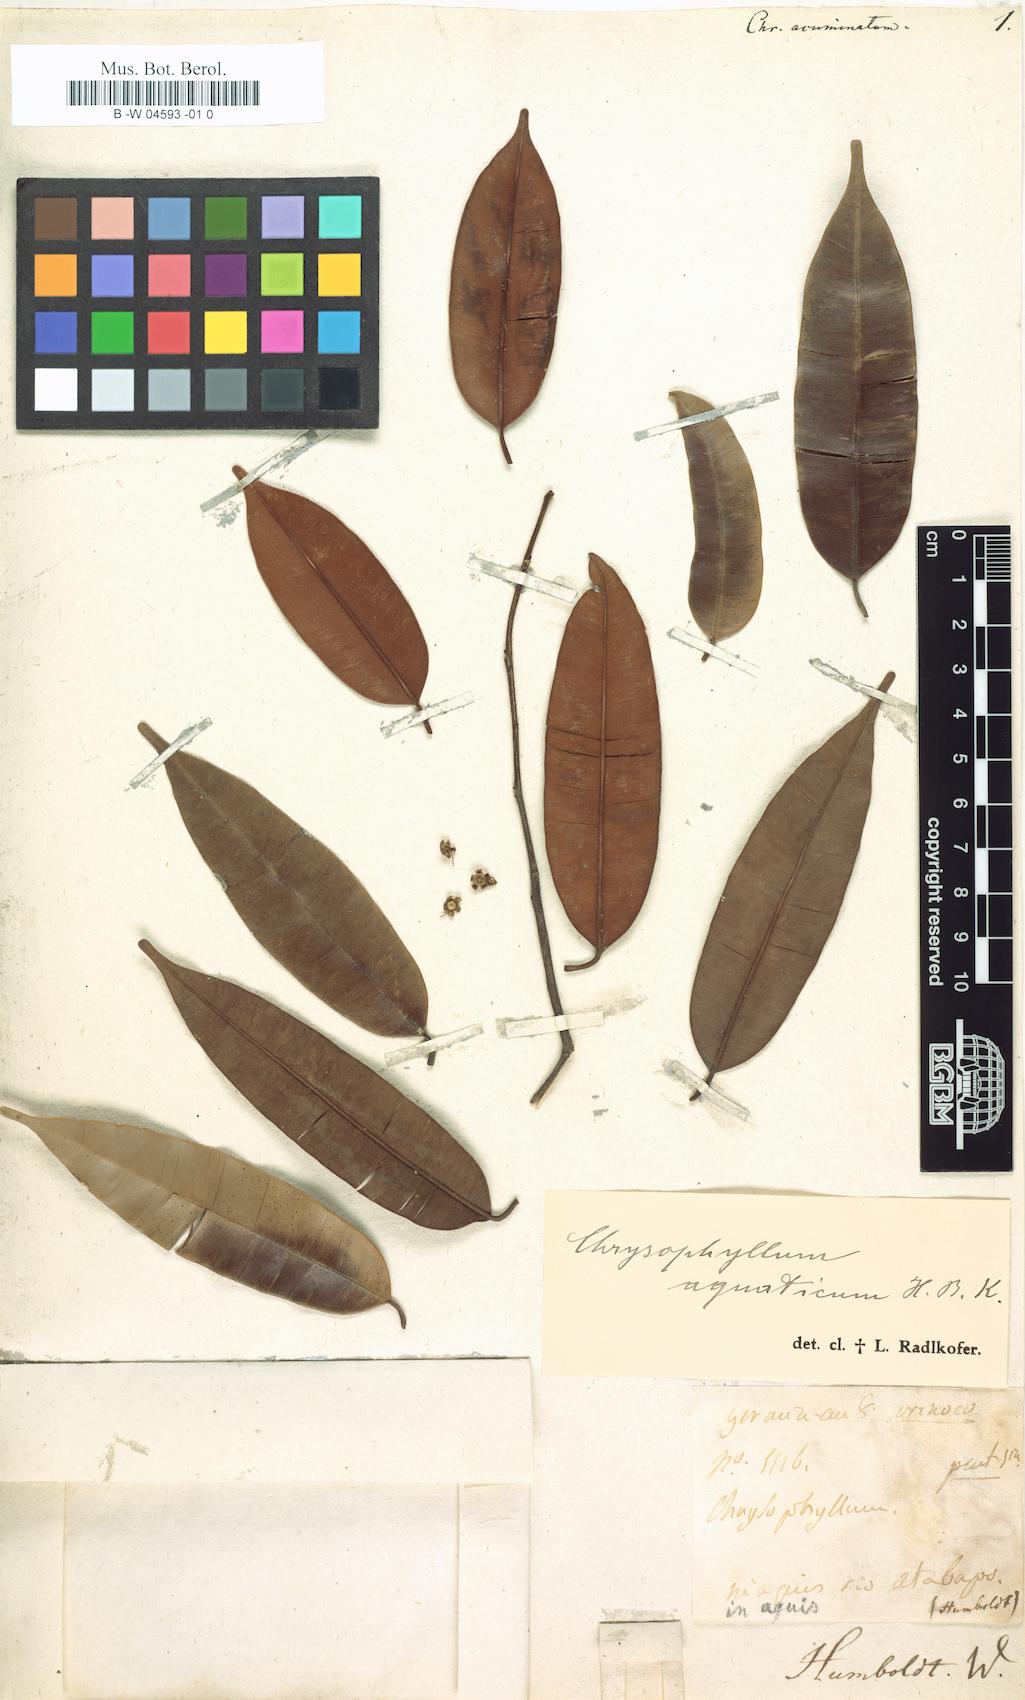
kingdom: Plantae
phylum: Tracheophyta
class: Magnoliopsida
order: Ericales
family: Sapotaceae
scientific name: Sapotaceae
